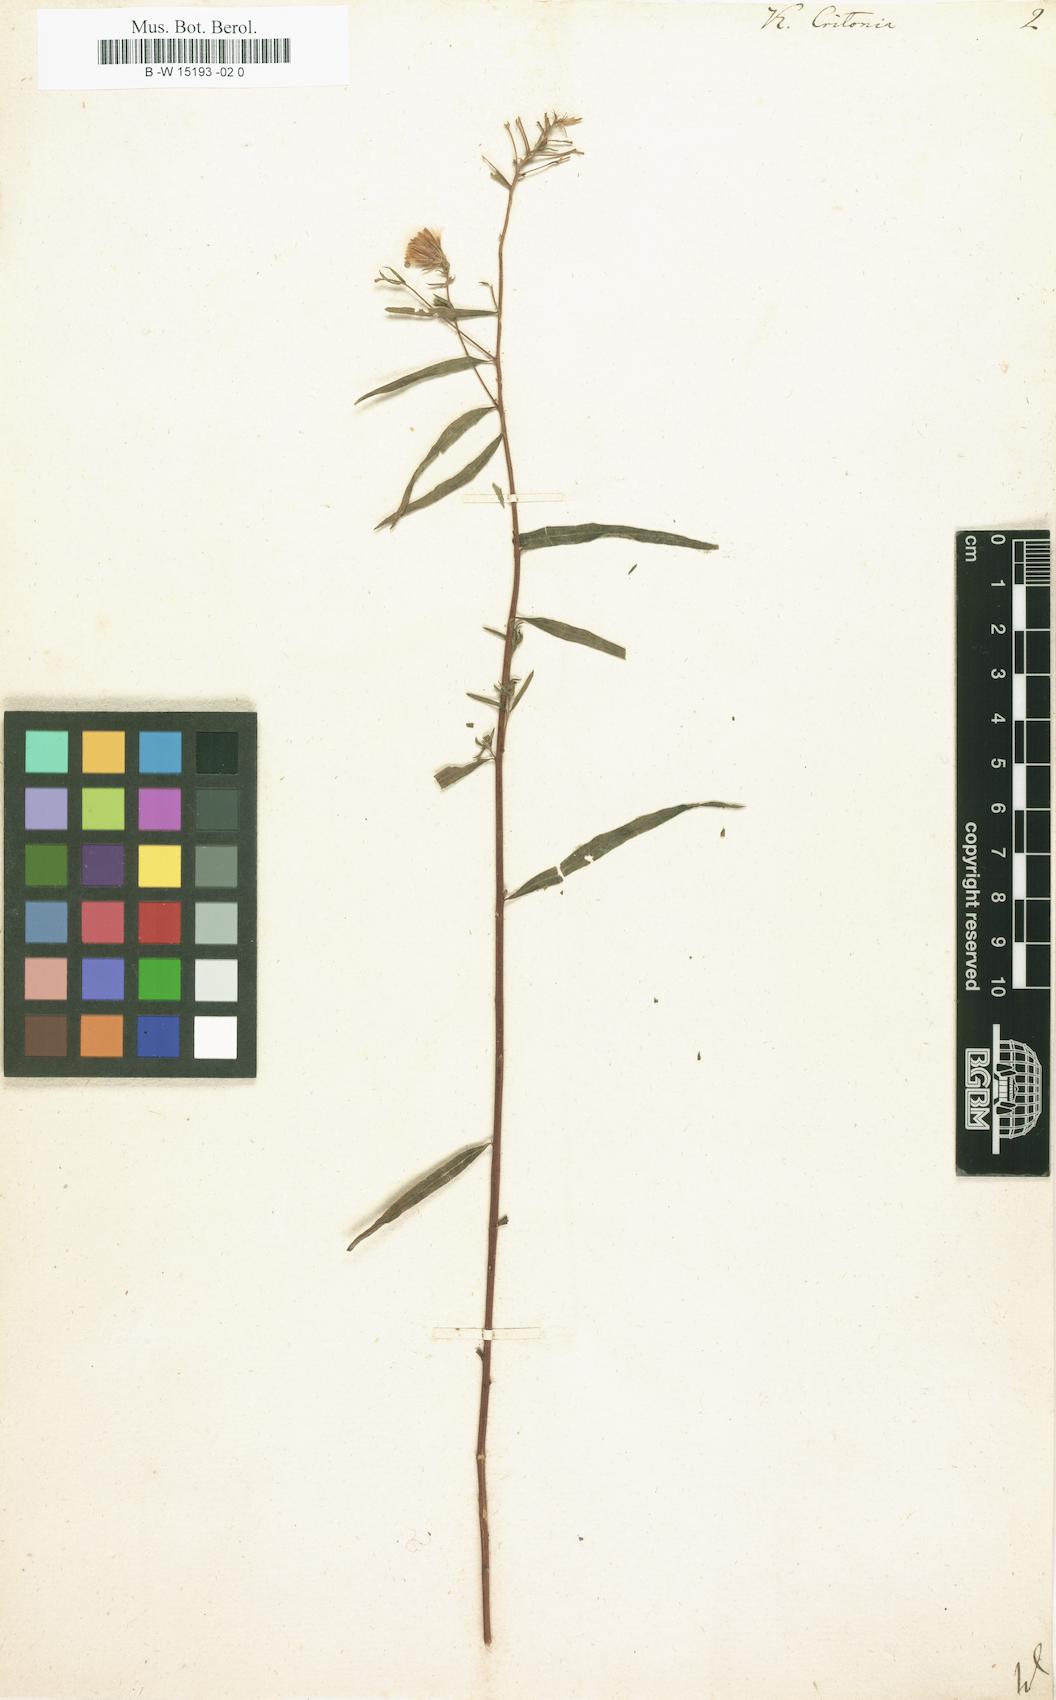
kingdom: Plantae
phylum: Tracheophyta
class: Magnoliopsida
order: Asterales
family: Asteraceae
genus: Brickellia
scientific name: Brickellia eupatorioides
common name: False boneset
